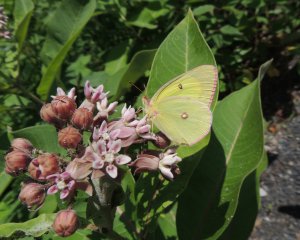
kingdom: Animalia
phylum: Arthropoda
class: Insecta
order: Lepidoptera
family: Pieridae
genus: Colias
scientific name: Colias interior
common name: Pink-edged Sulphur
